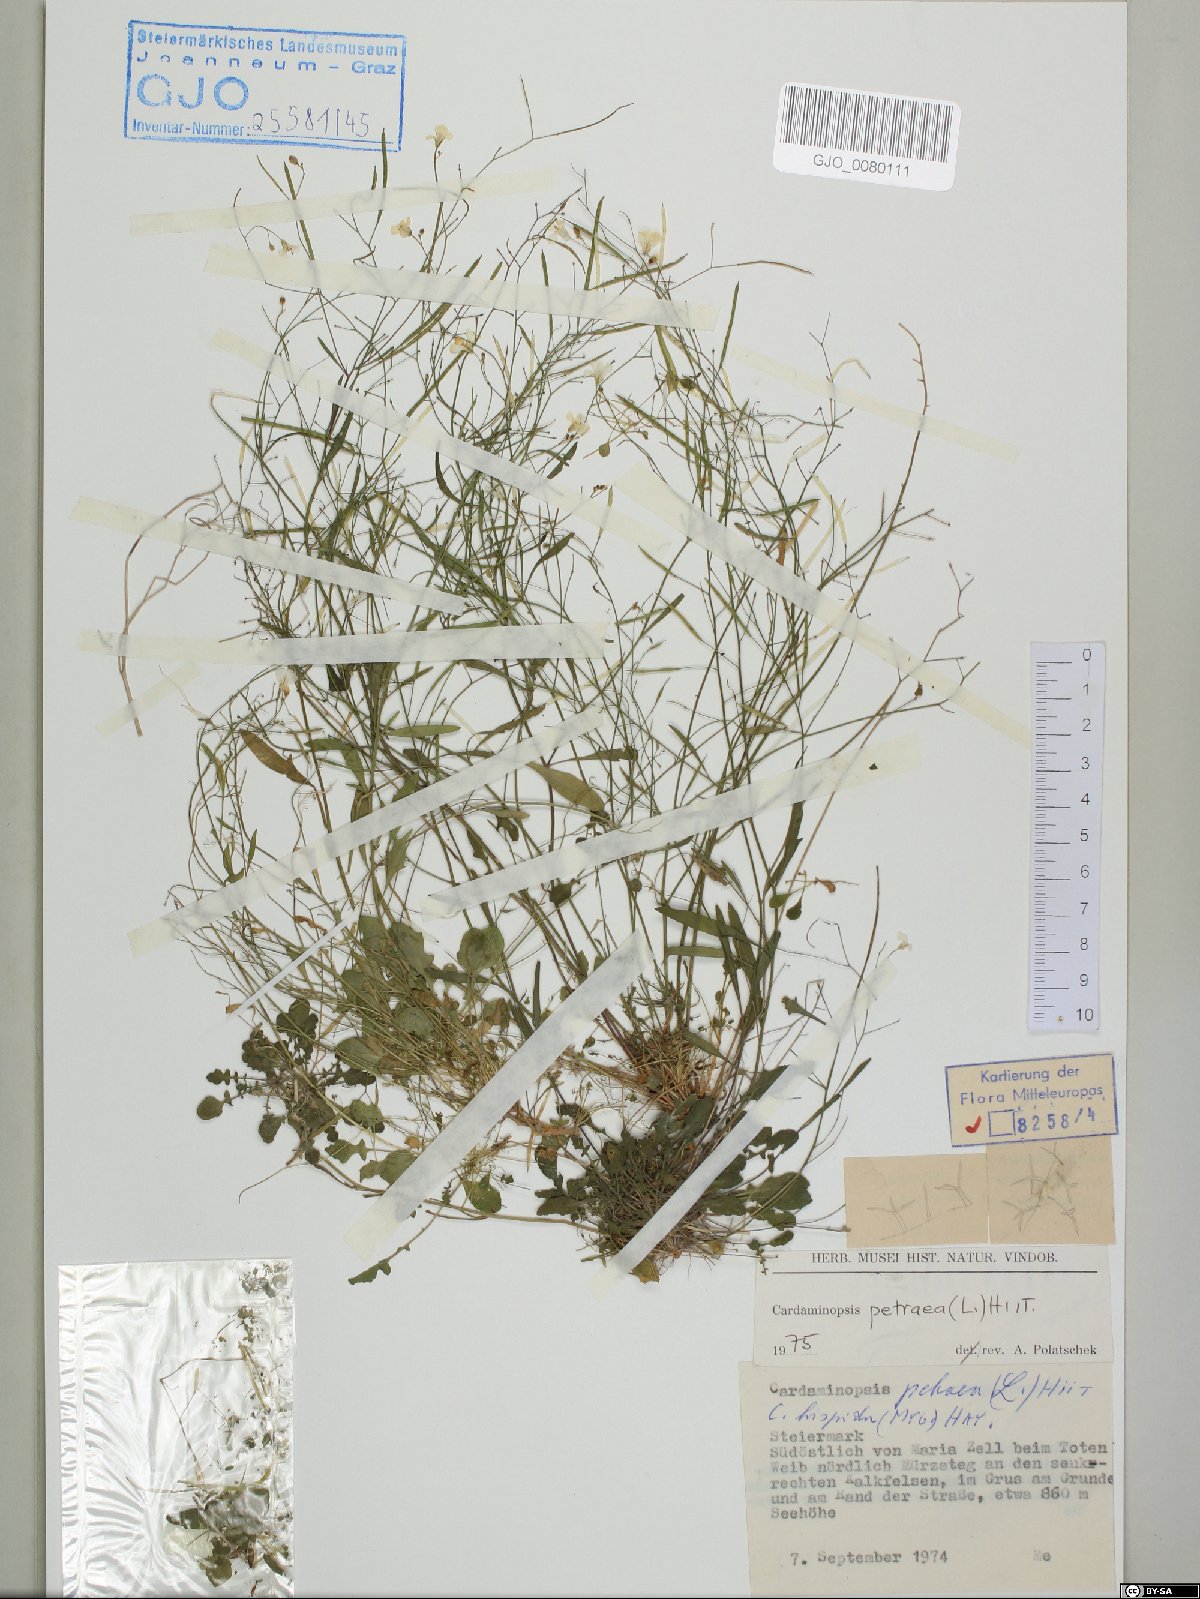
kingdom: Plantae
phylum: Tracheophyta
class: Magnoliopsida
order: Brassicales
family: Brassicaceae
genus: Arabidopsis
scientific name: Arabidopsis lyrata
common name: Lyrate rockcress
